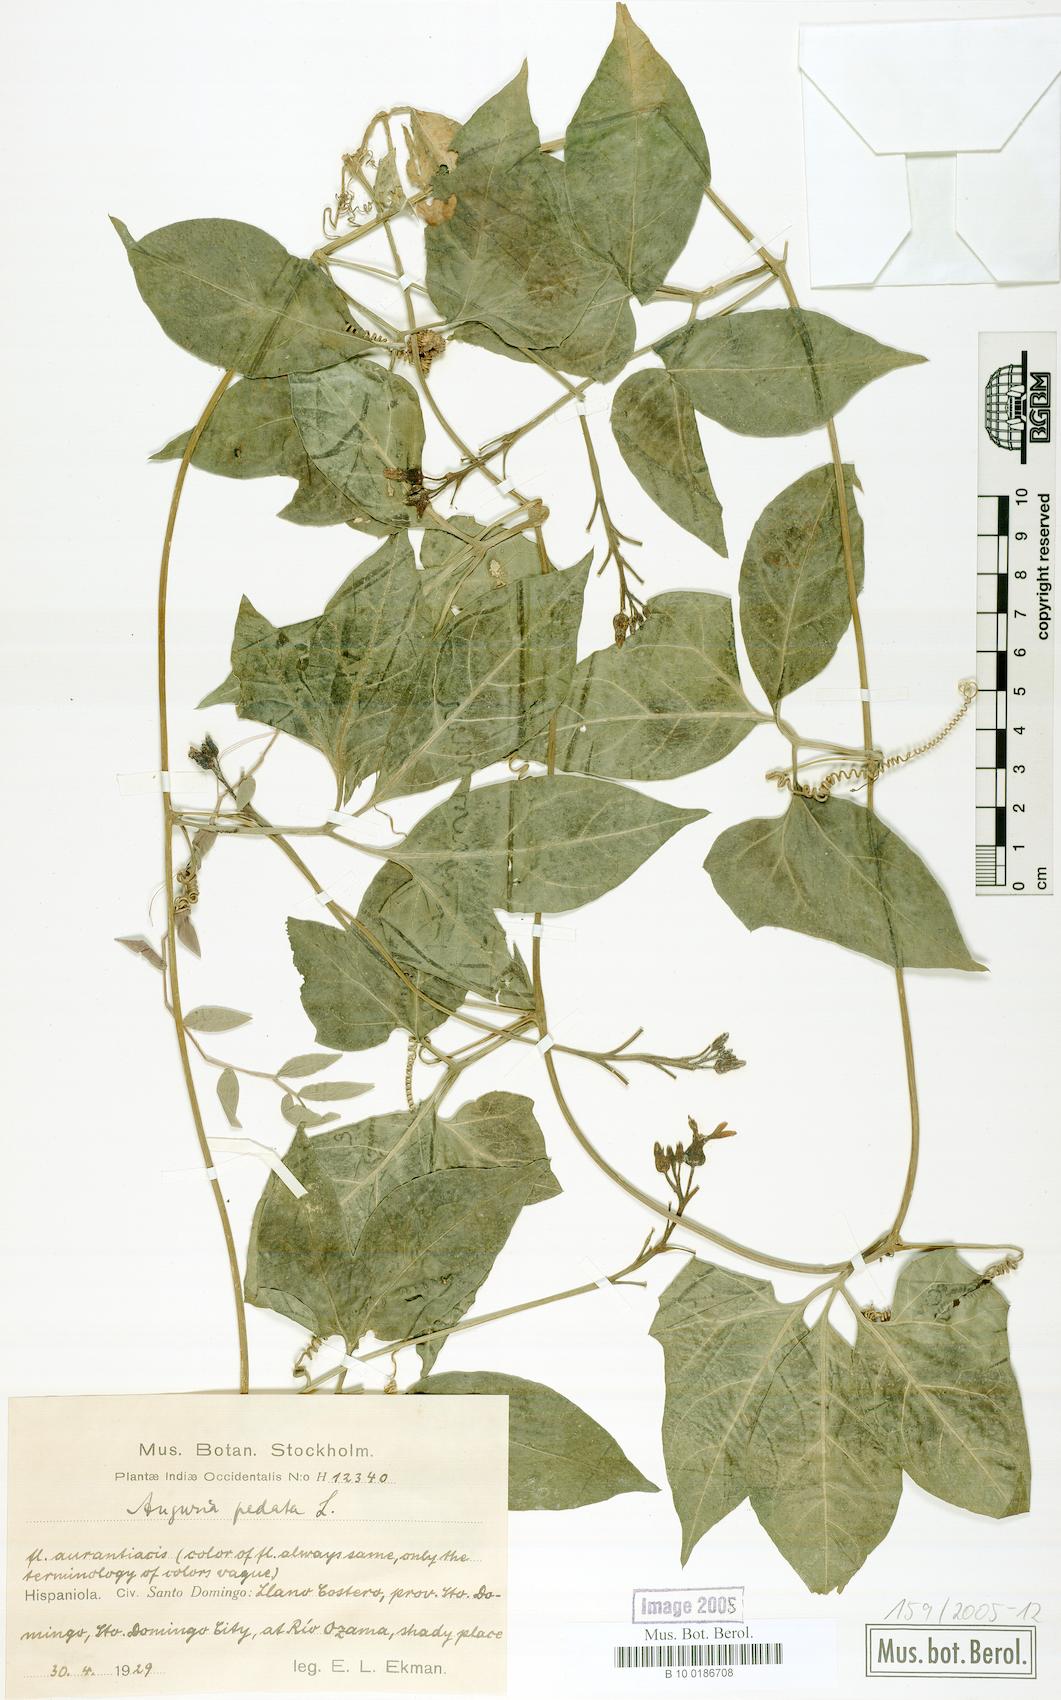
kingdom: Plantae
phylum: Tracheophyta
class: Magnoliopsida
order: Cucurbitales
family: Cucurbitaceae
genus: Gurania
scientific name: Gurania pedata
